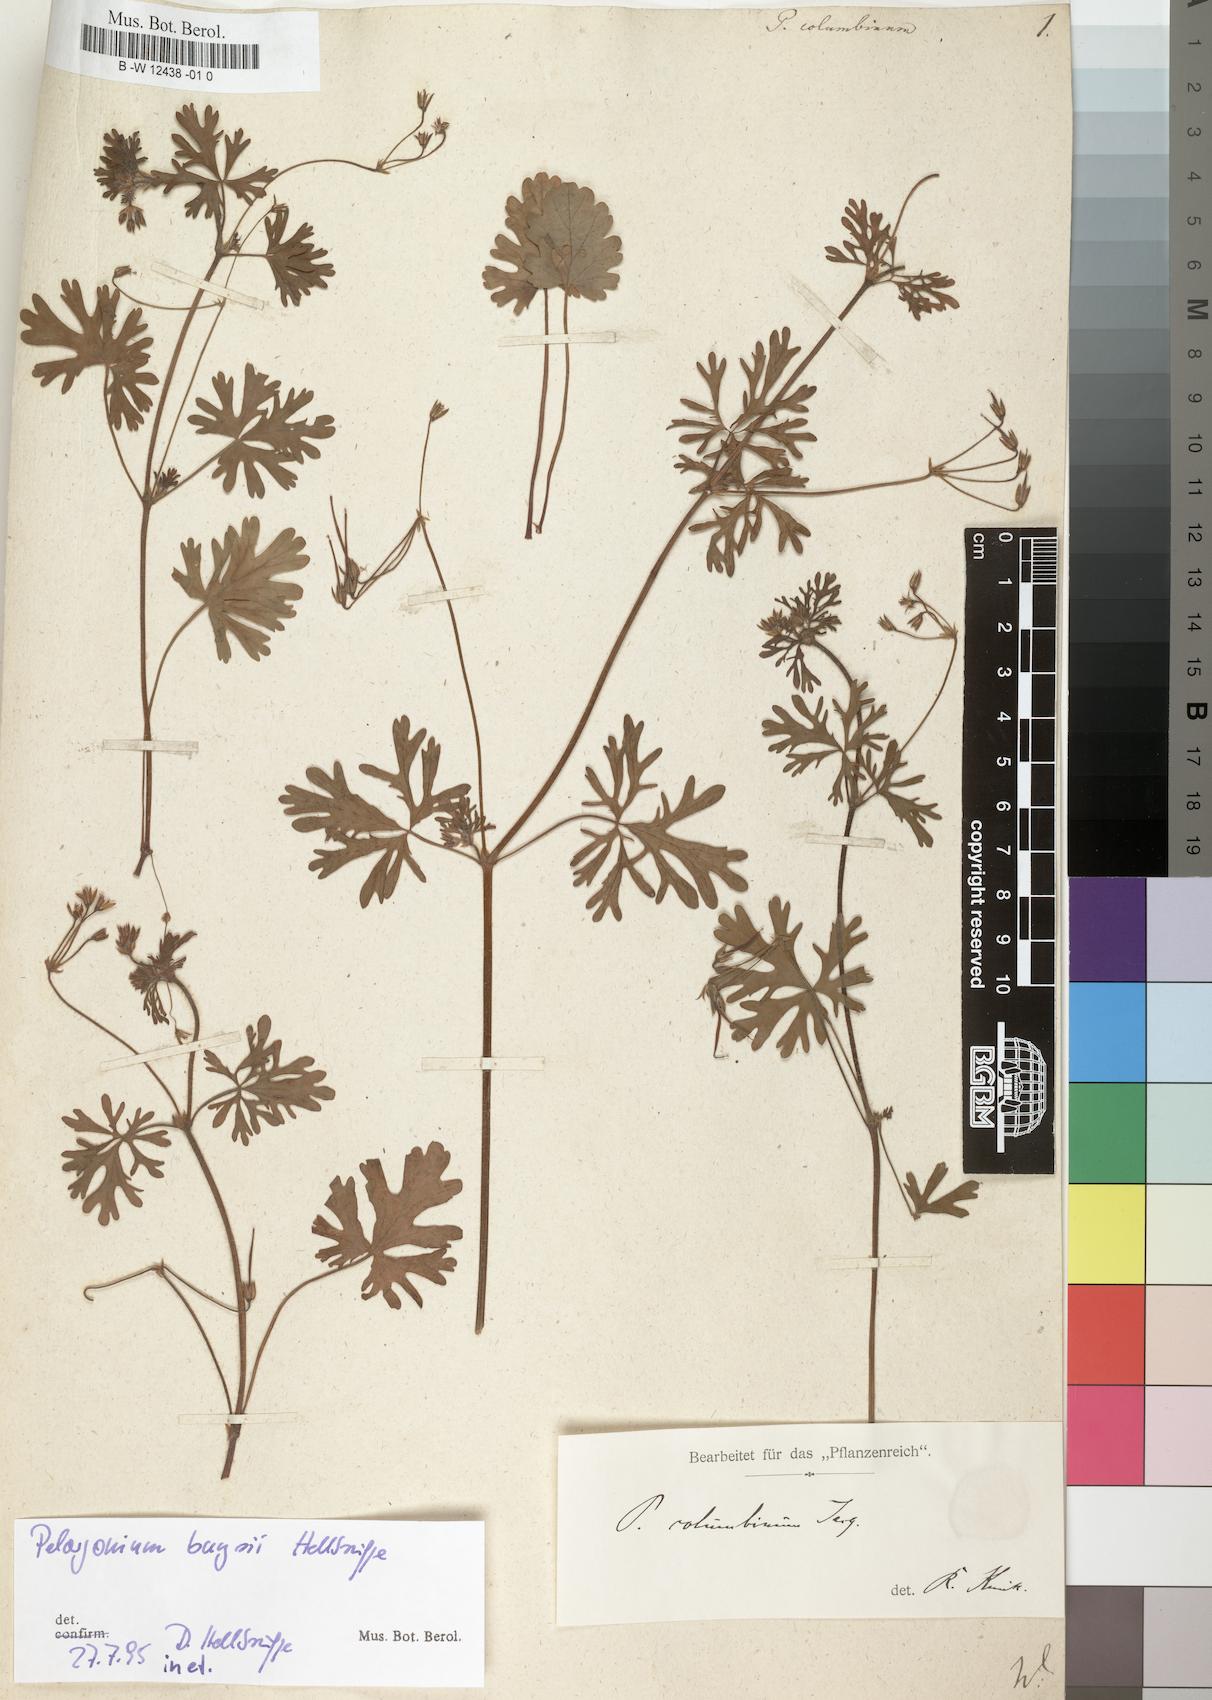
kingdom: Plantae
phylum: Tracheophyta
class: Magnoliopsida
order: Geraniales
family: Geraniaceae
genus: Pelargonium
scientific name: Pelargonium columbinum
